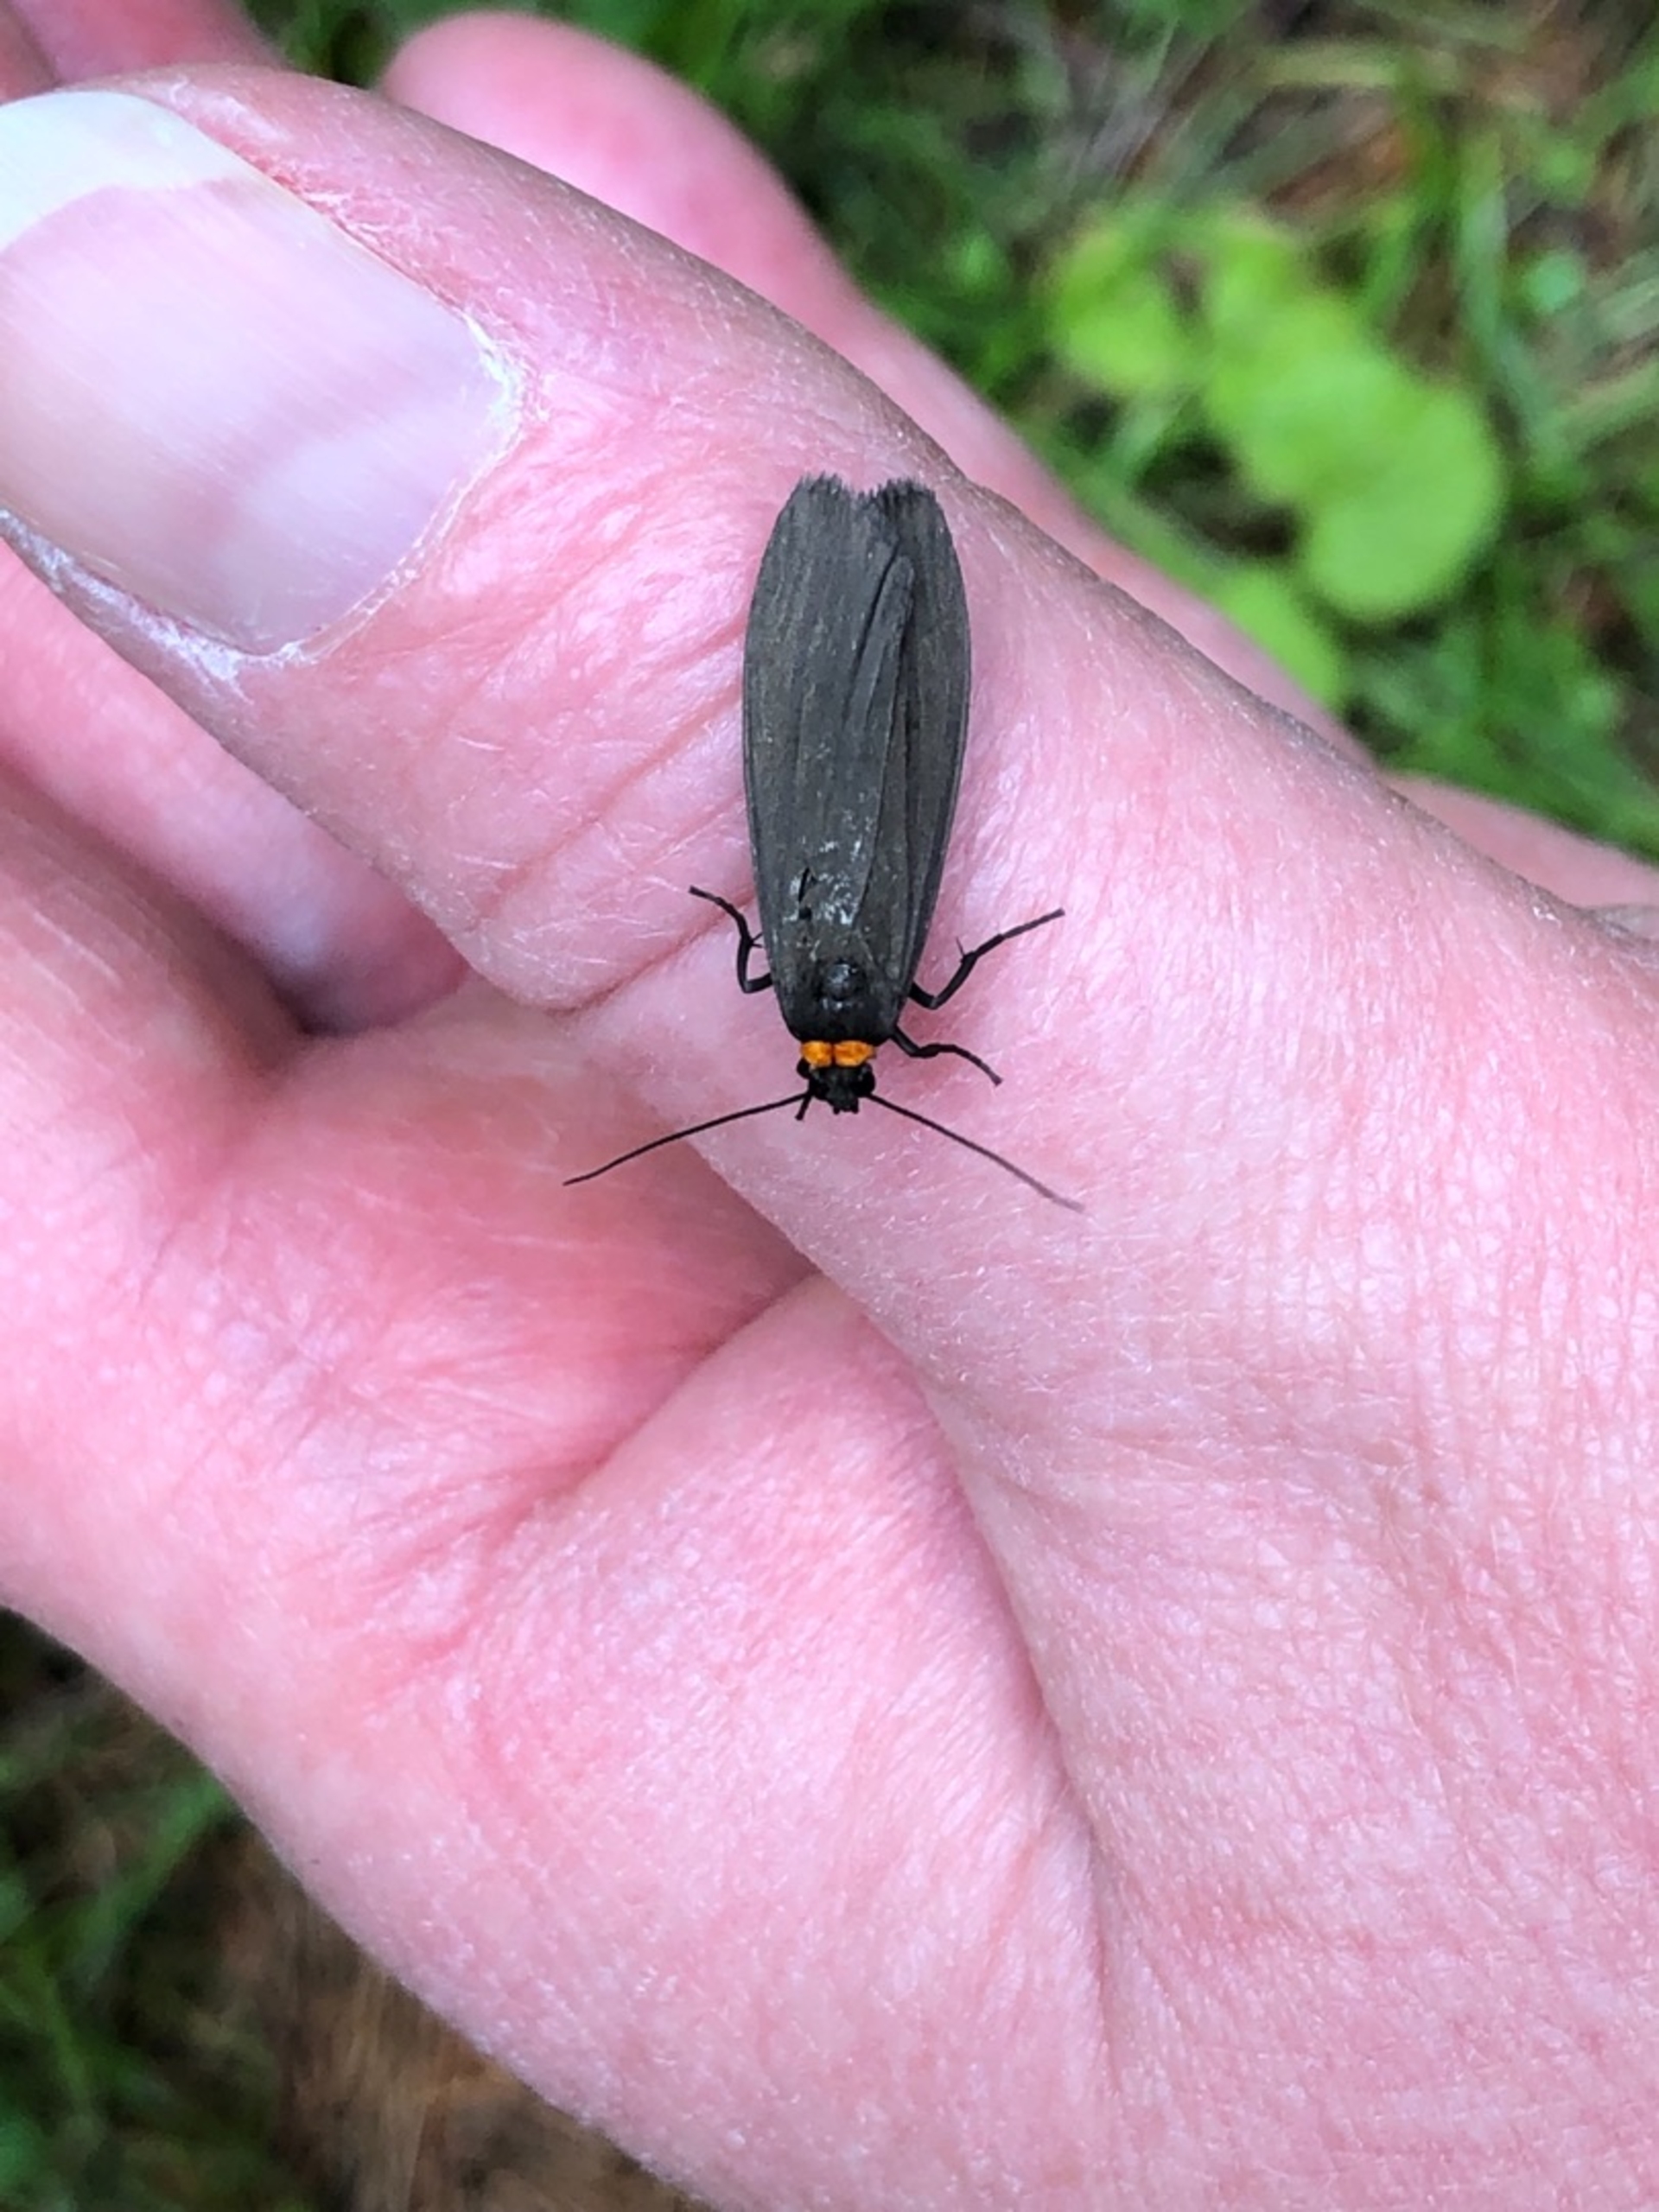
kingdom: Animalia
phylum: Arthropoda
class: Insecta
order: Lepidoptera
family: Erebidae
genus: Atolmis
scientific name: Atolmis rubricollis
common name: Blodnakke
